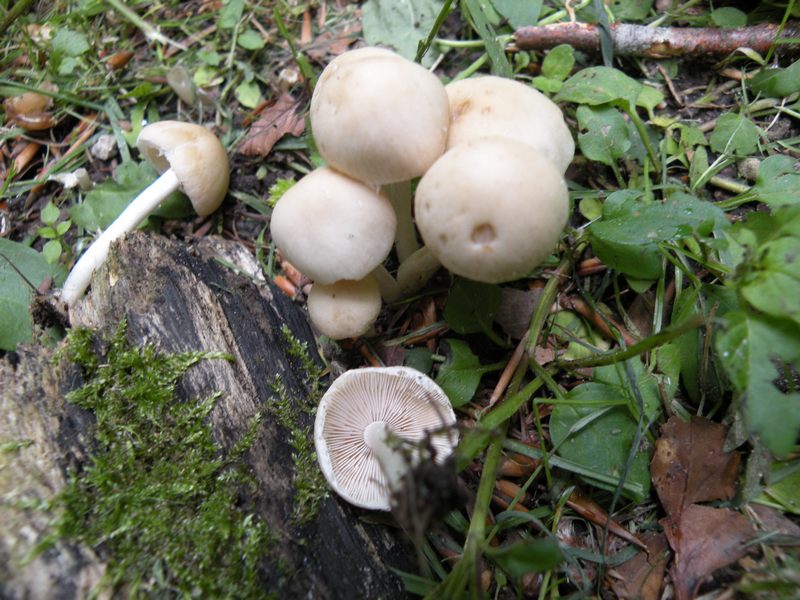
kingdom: Fungi
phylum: Basidiomycota
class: Agaricomycetes
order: Agaricales
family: Psathyrellaceae
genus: Candolleomyces
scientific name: Candolleomyces candolleanus
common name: Candolles mørkhat
